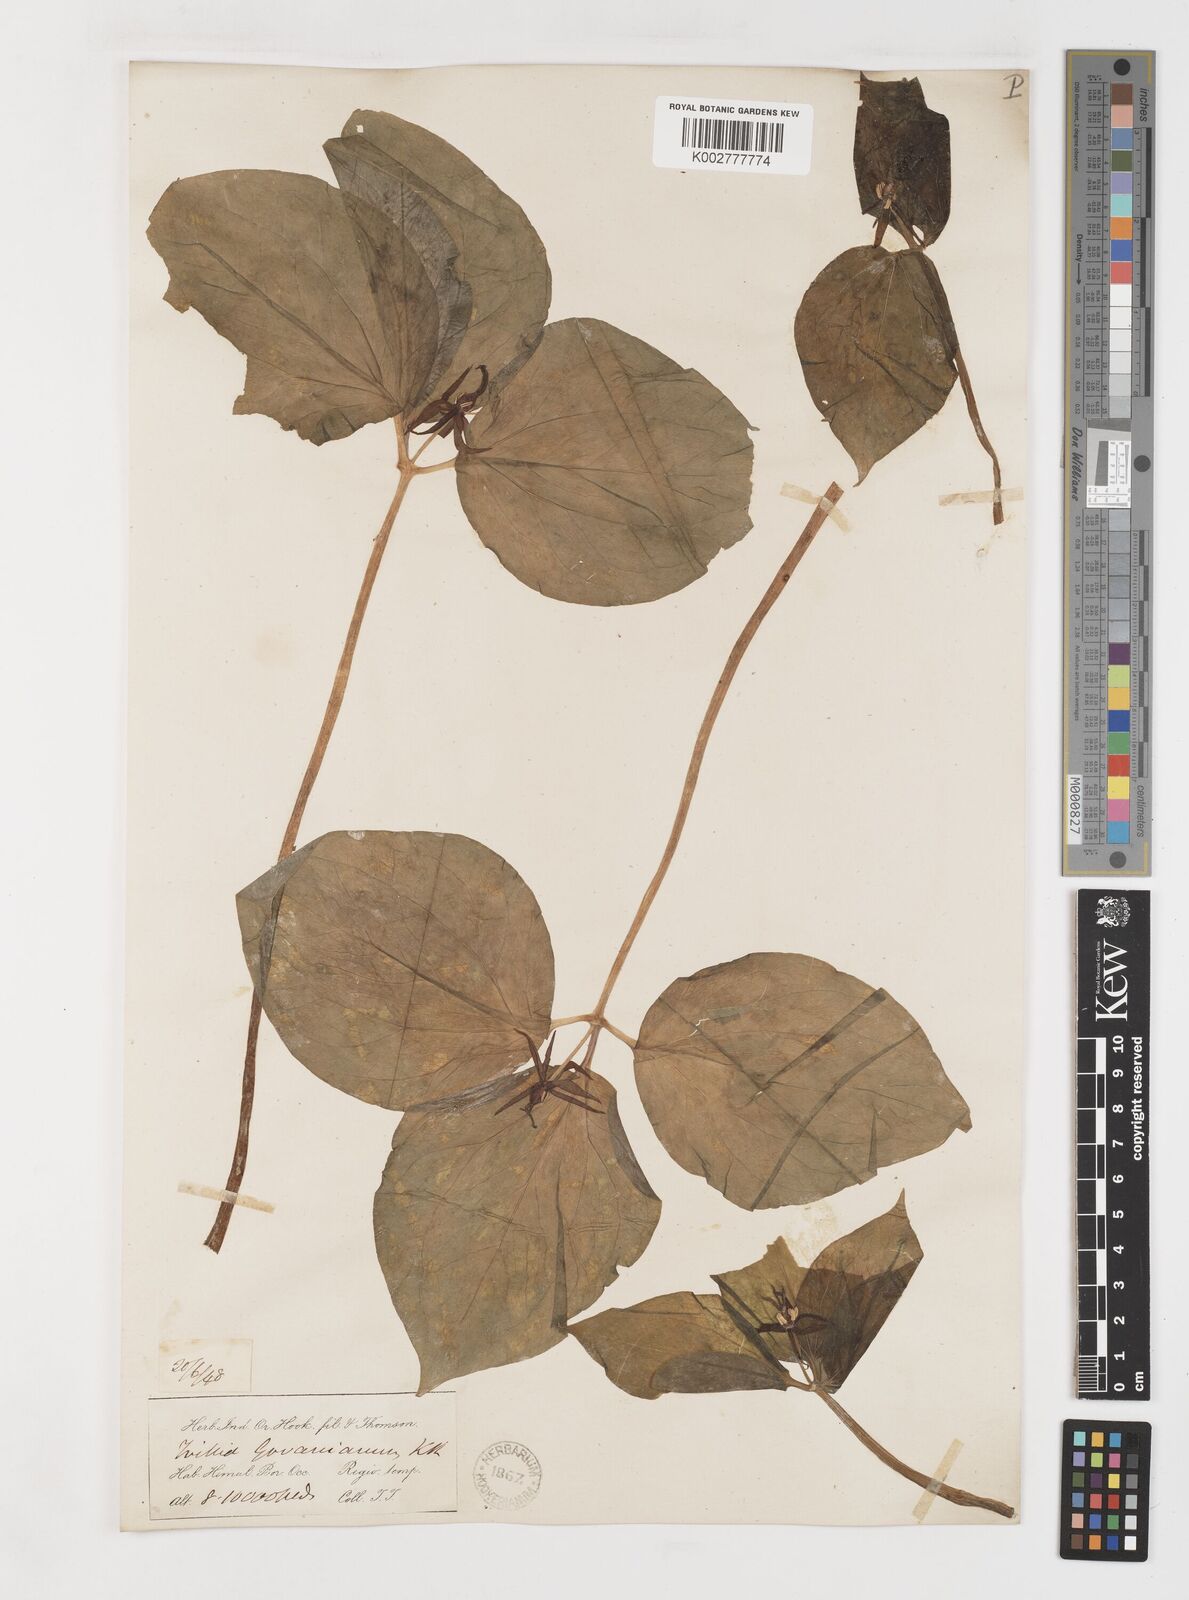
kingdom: Plantae
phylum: Tracheophyta
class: Liliopsida
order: Liliales
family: Melanthiaceae
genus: Trillium
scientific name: Trillium govanianum
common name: Himalayan trillium
